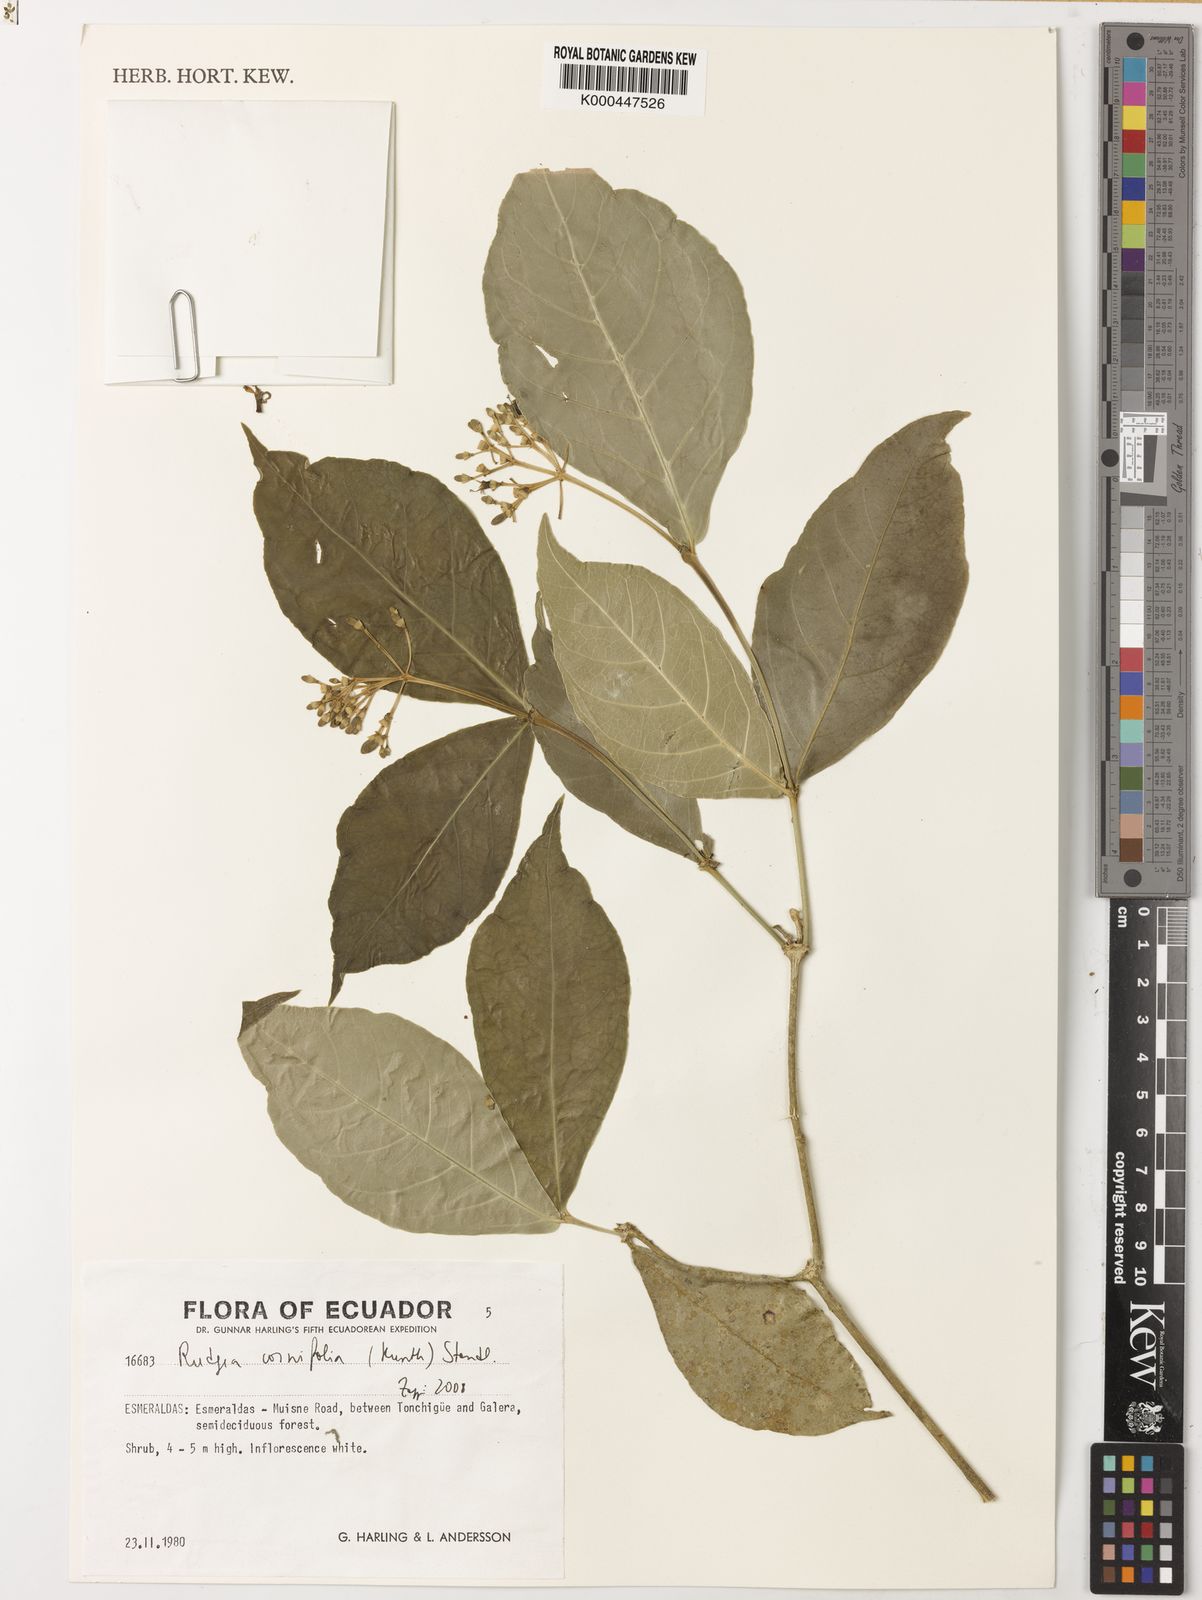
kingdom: Plantae
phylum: Tracheophyta
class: Magnoliopsida
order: Gentianales
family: Rubiaceae
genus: Rudgea
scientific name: Rudgea cornifolia
